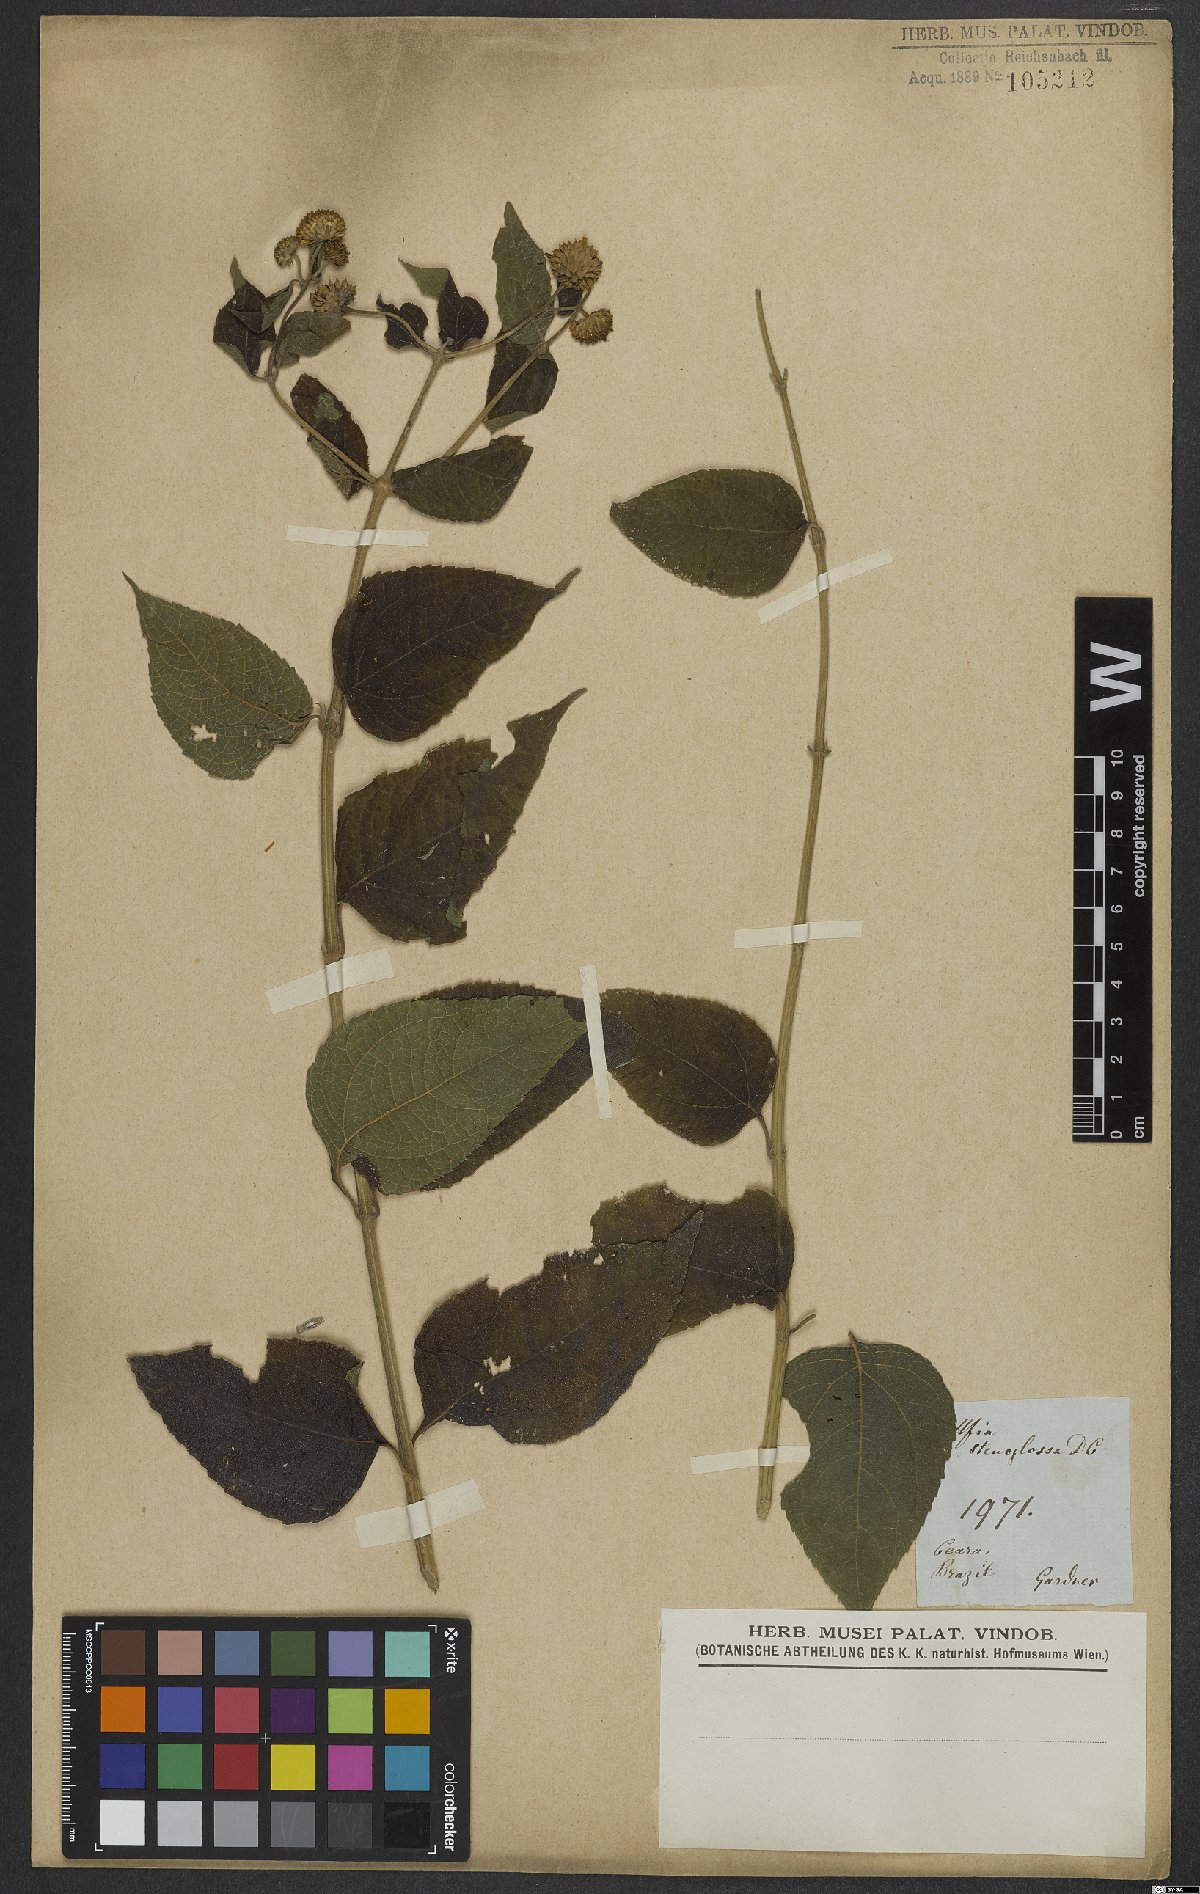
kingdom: Plantae
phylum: Tracheophyta
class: Magnoliopsida
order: Asterales
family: Asteraceae
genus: Tilesia
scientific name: Tilesia
